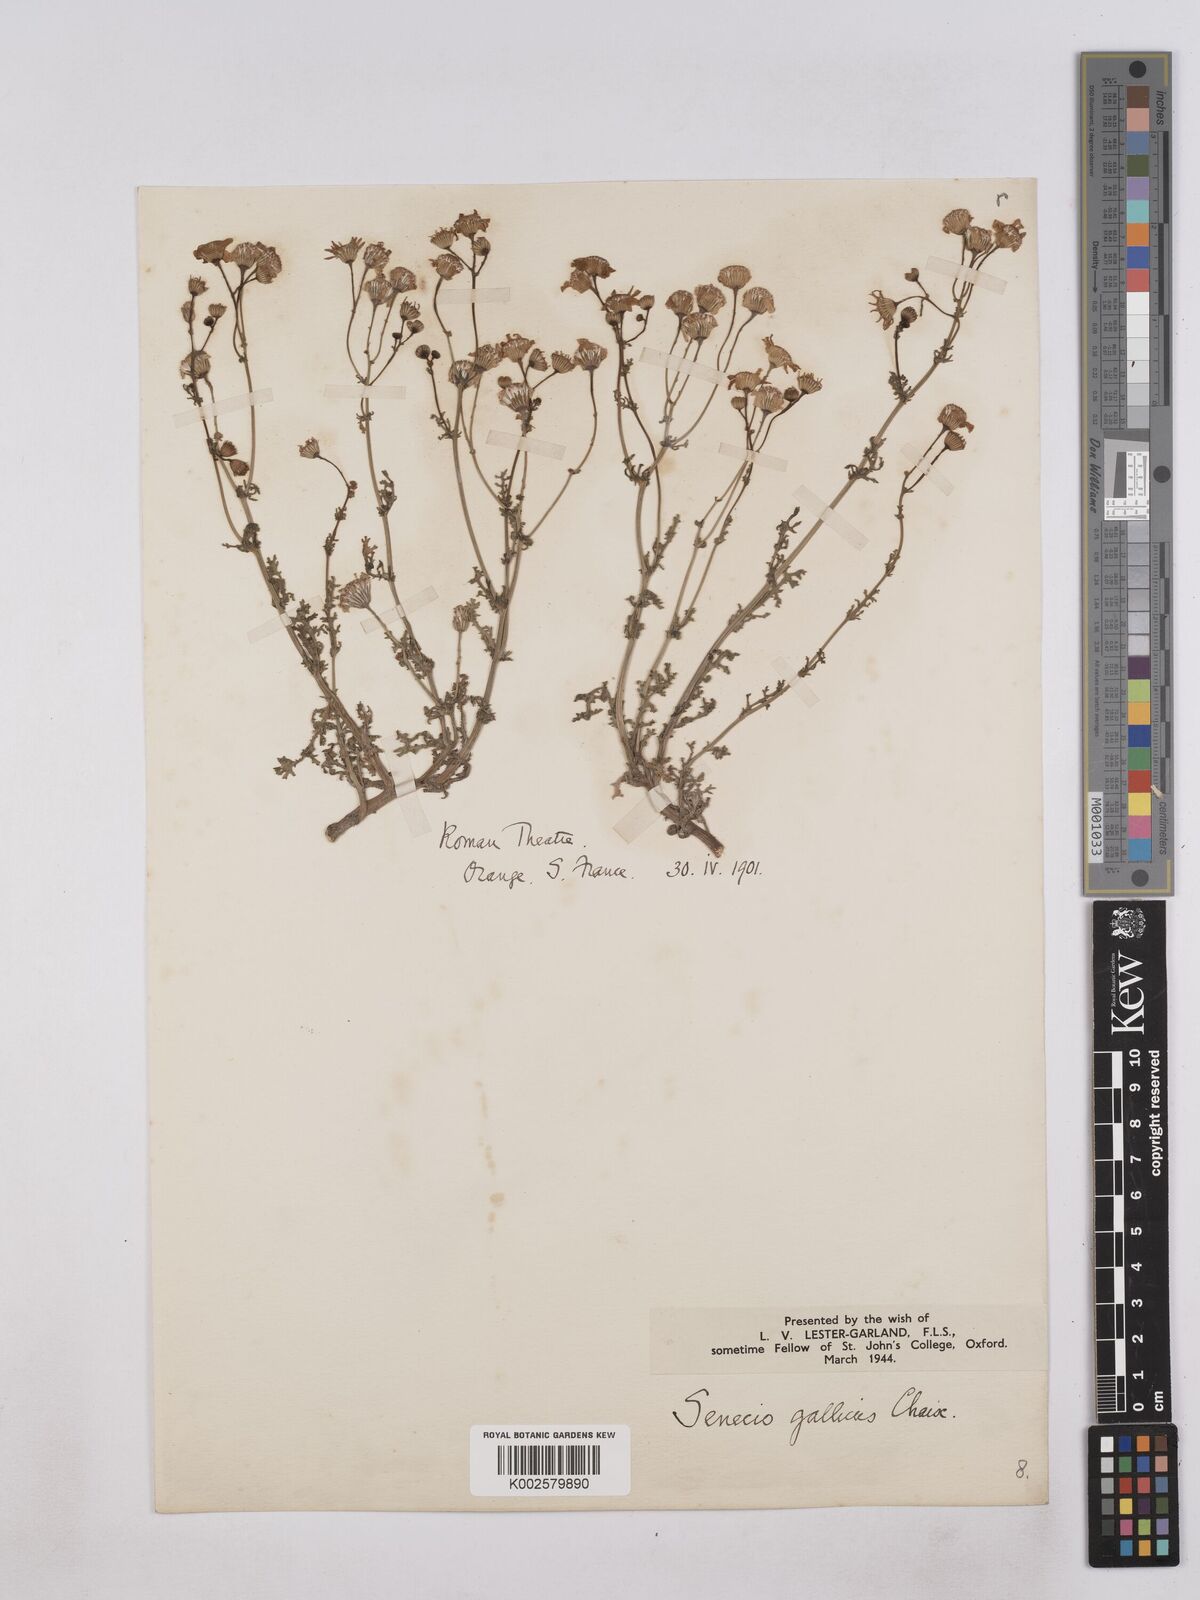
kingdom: Plantae
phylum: Tracheophyta
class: Magnoliopsida
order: Asterales
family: Asteraceae
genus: Senecio
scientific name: Senecio gallicus
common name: French groundsel
